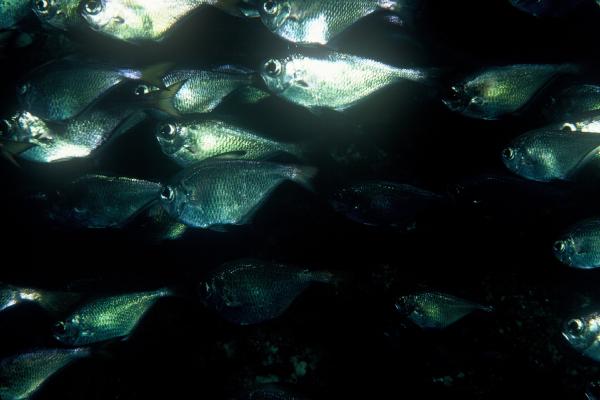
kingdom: Animalia
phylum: Chordata
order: Perciformes
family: Pempheridae
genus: Pempheris
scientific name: Pempheris
